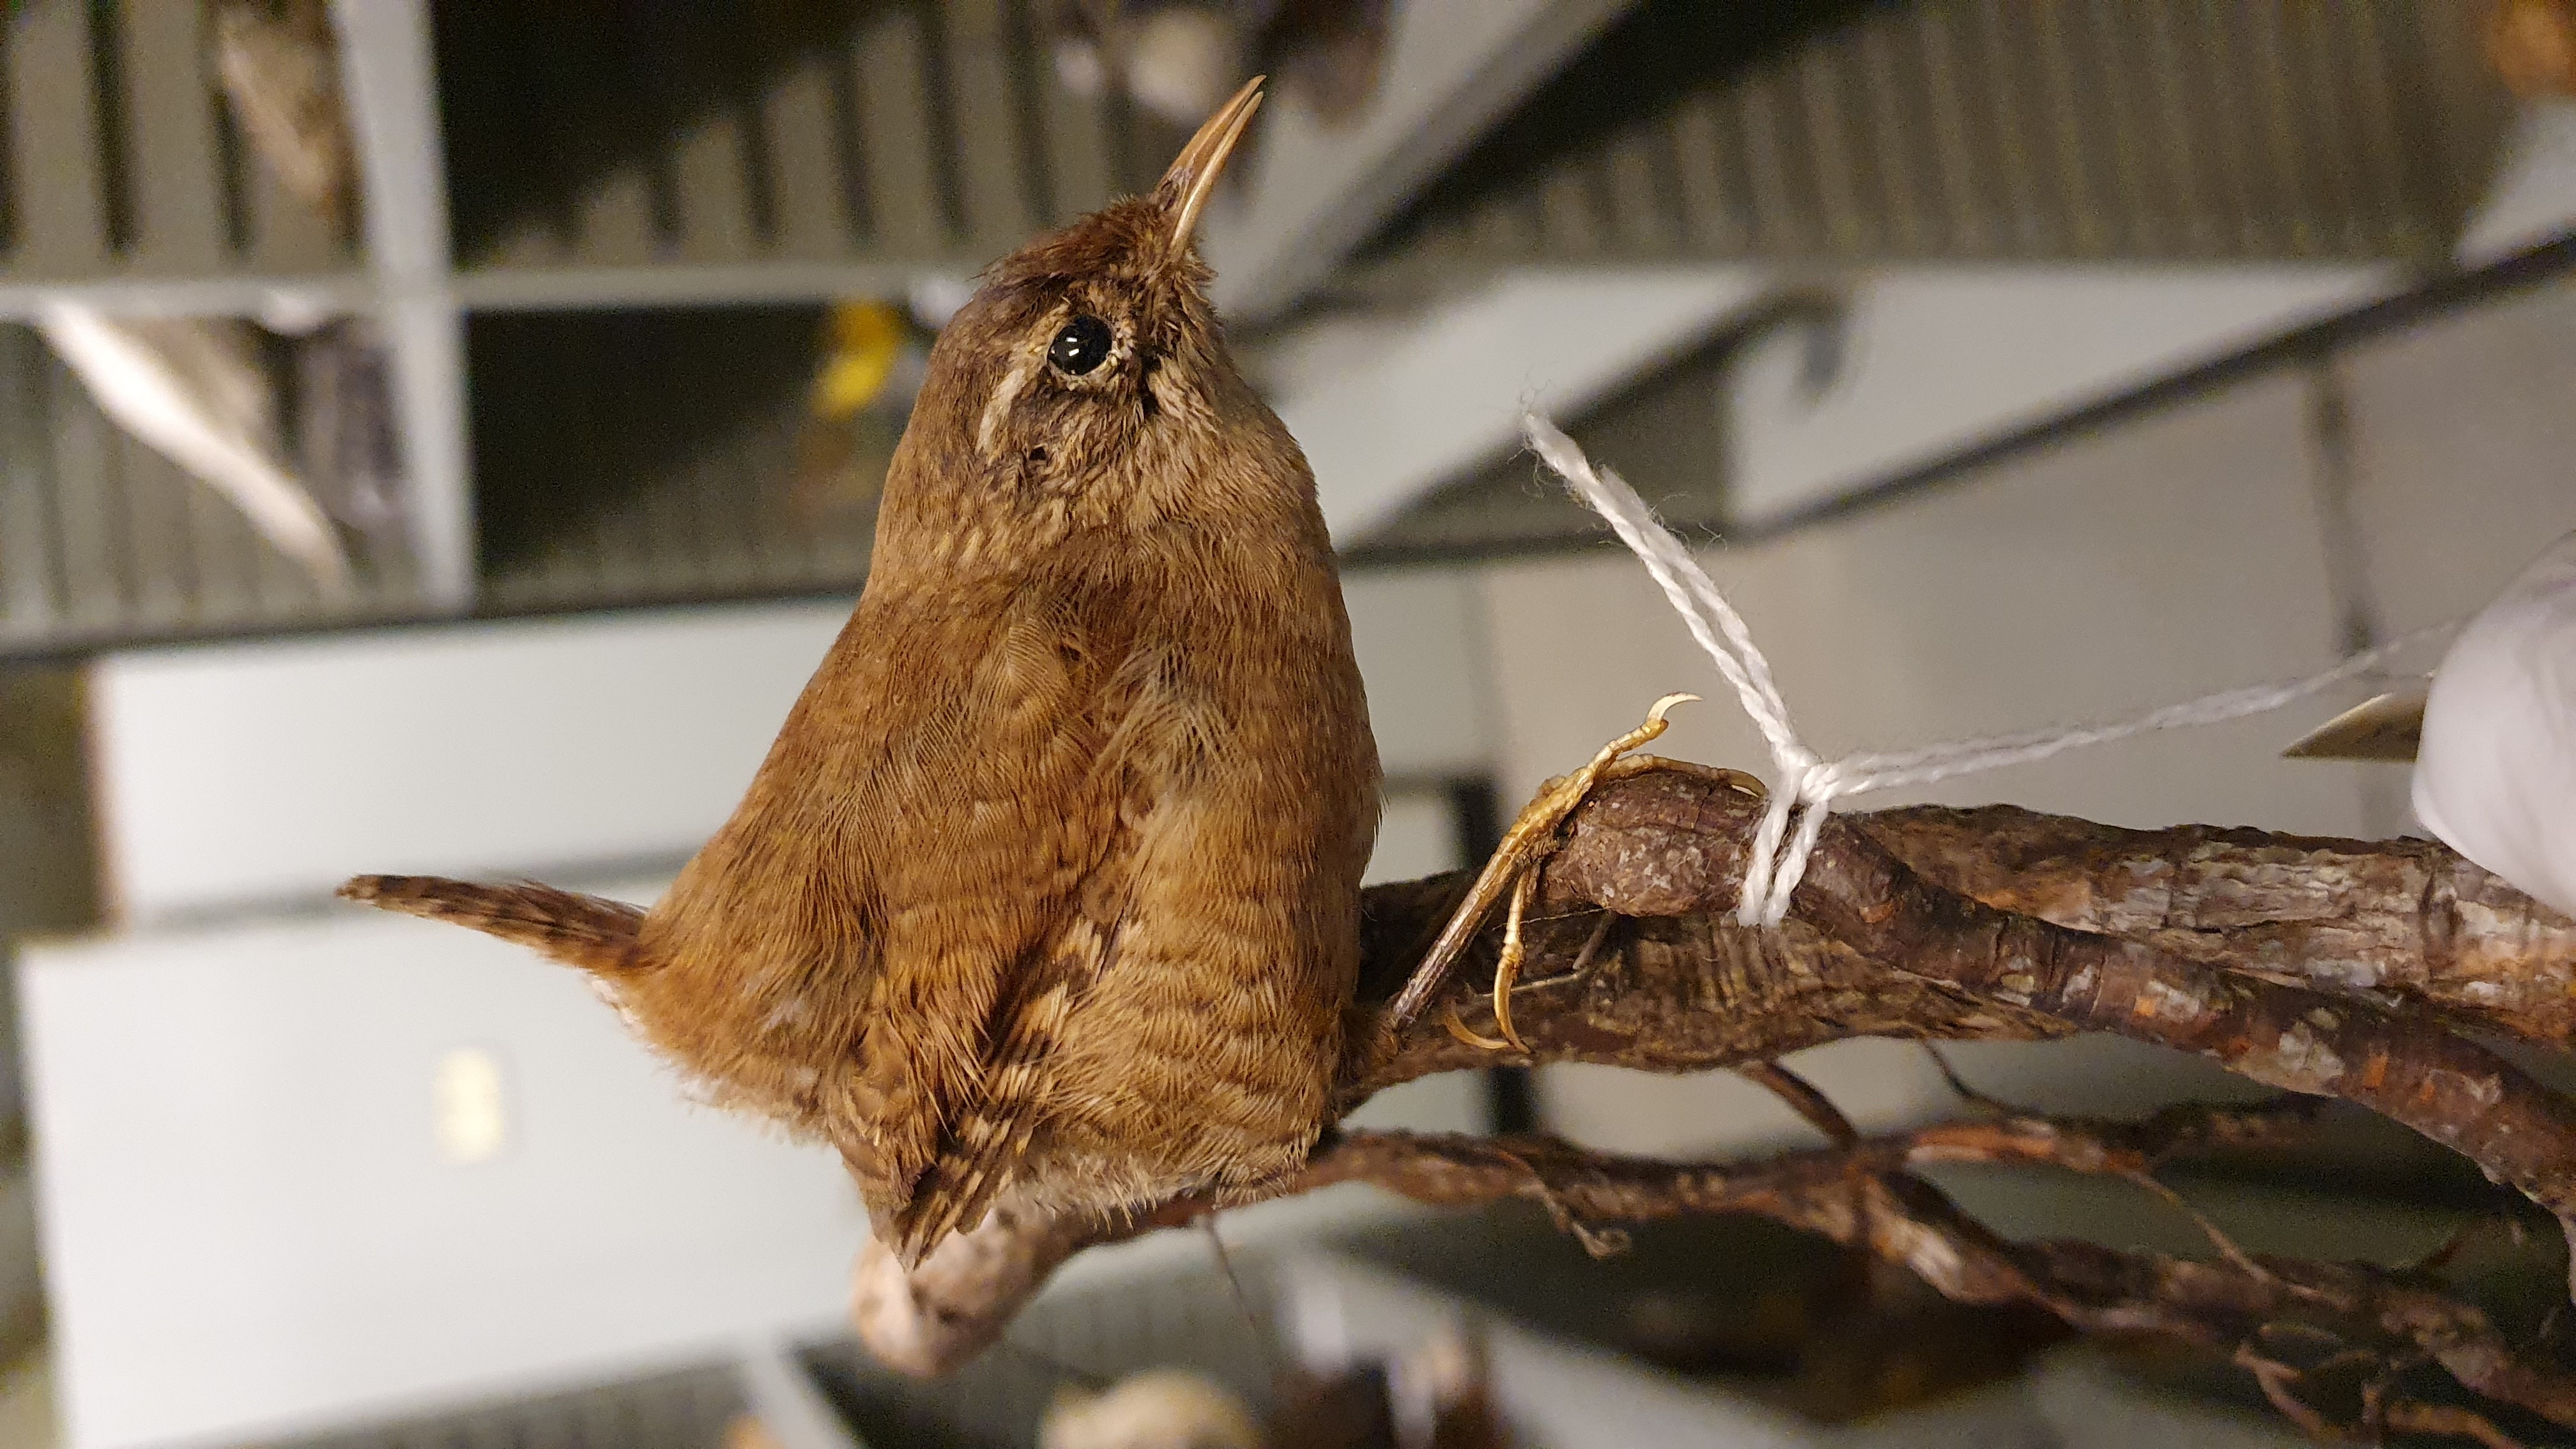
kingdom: Animalia
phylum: Chordata
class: Aves
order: Passeriformes
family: Troglodytidae
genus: Troglodytes
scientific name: Troglodytes troglodytes
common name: Eurasian wren
